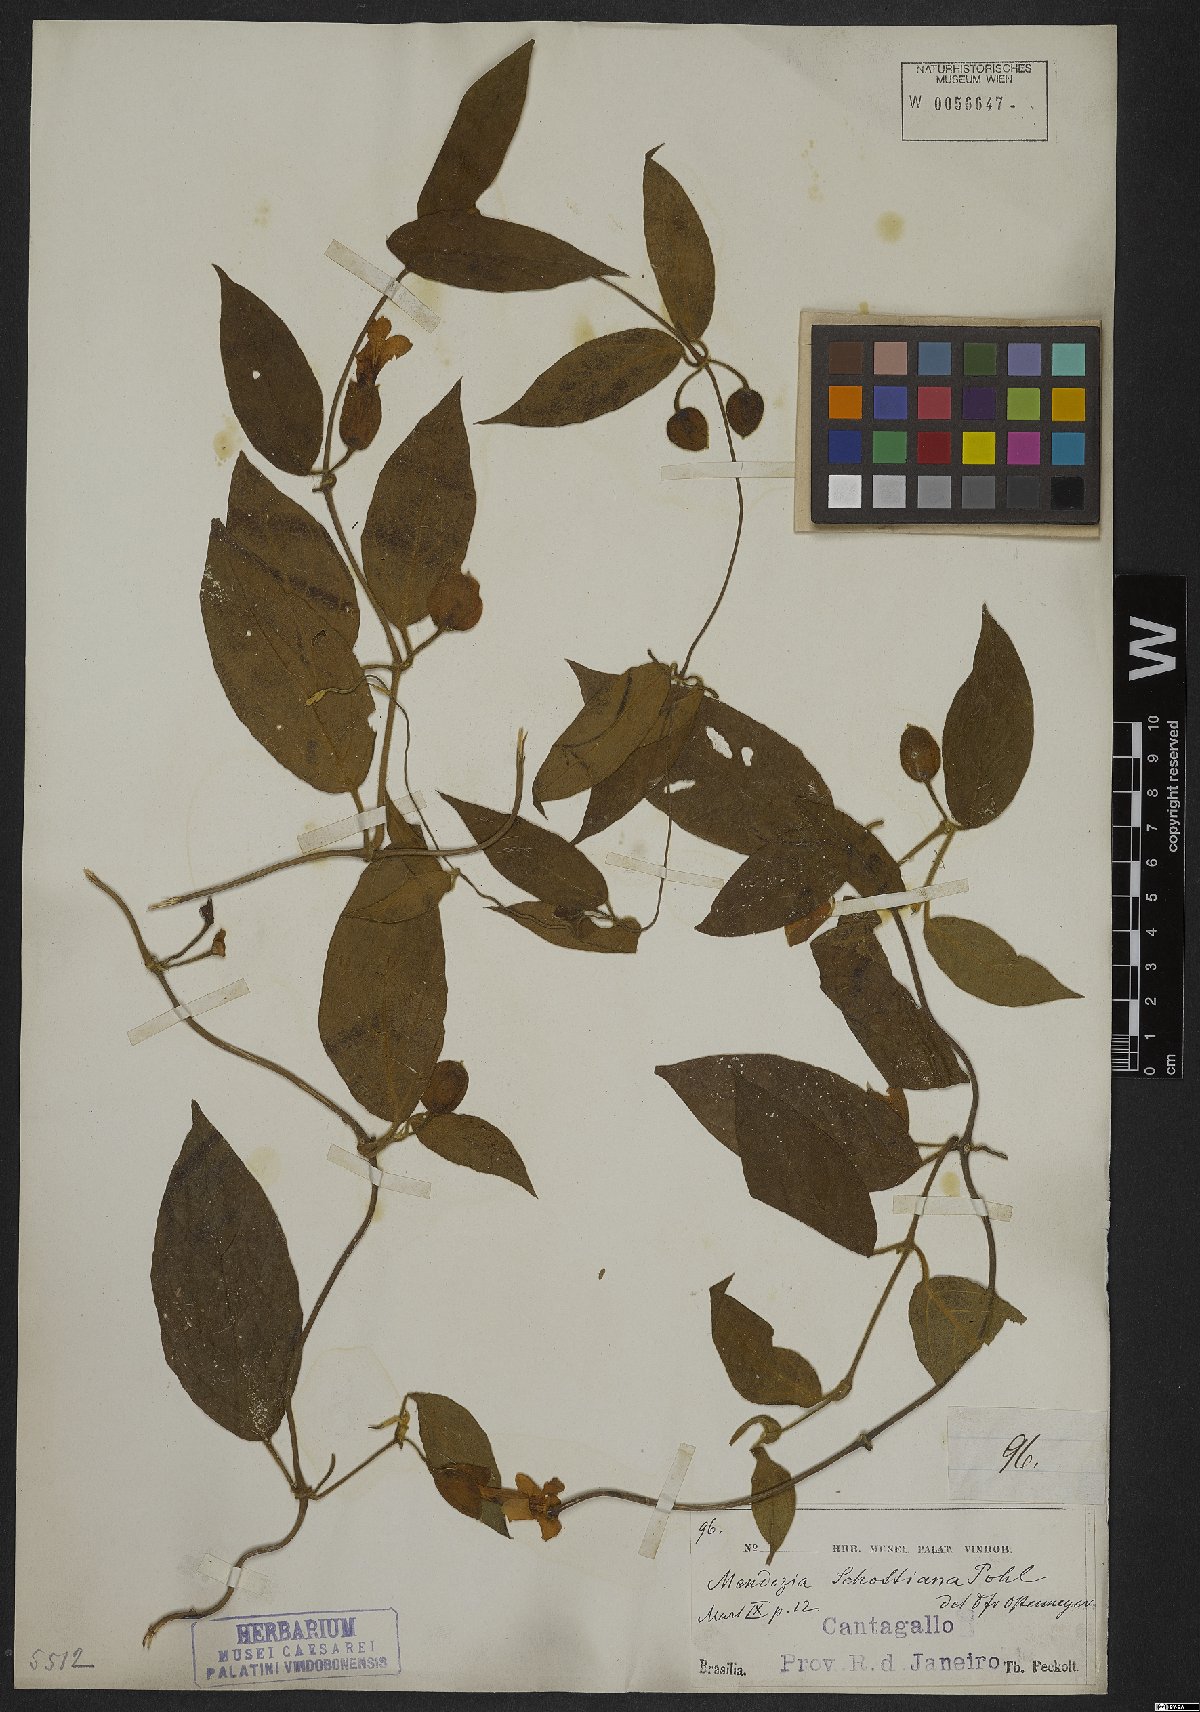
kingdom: Plantae
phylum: Tracheophyta
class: Magnoliopsida
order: Lamiales
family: Acanthaceae
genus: Mendoncia
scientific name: Mendoncia schottiana
